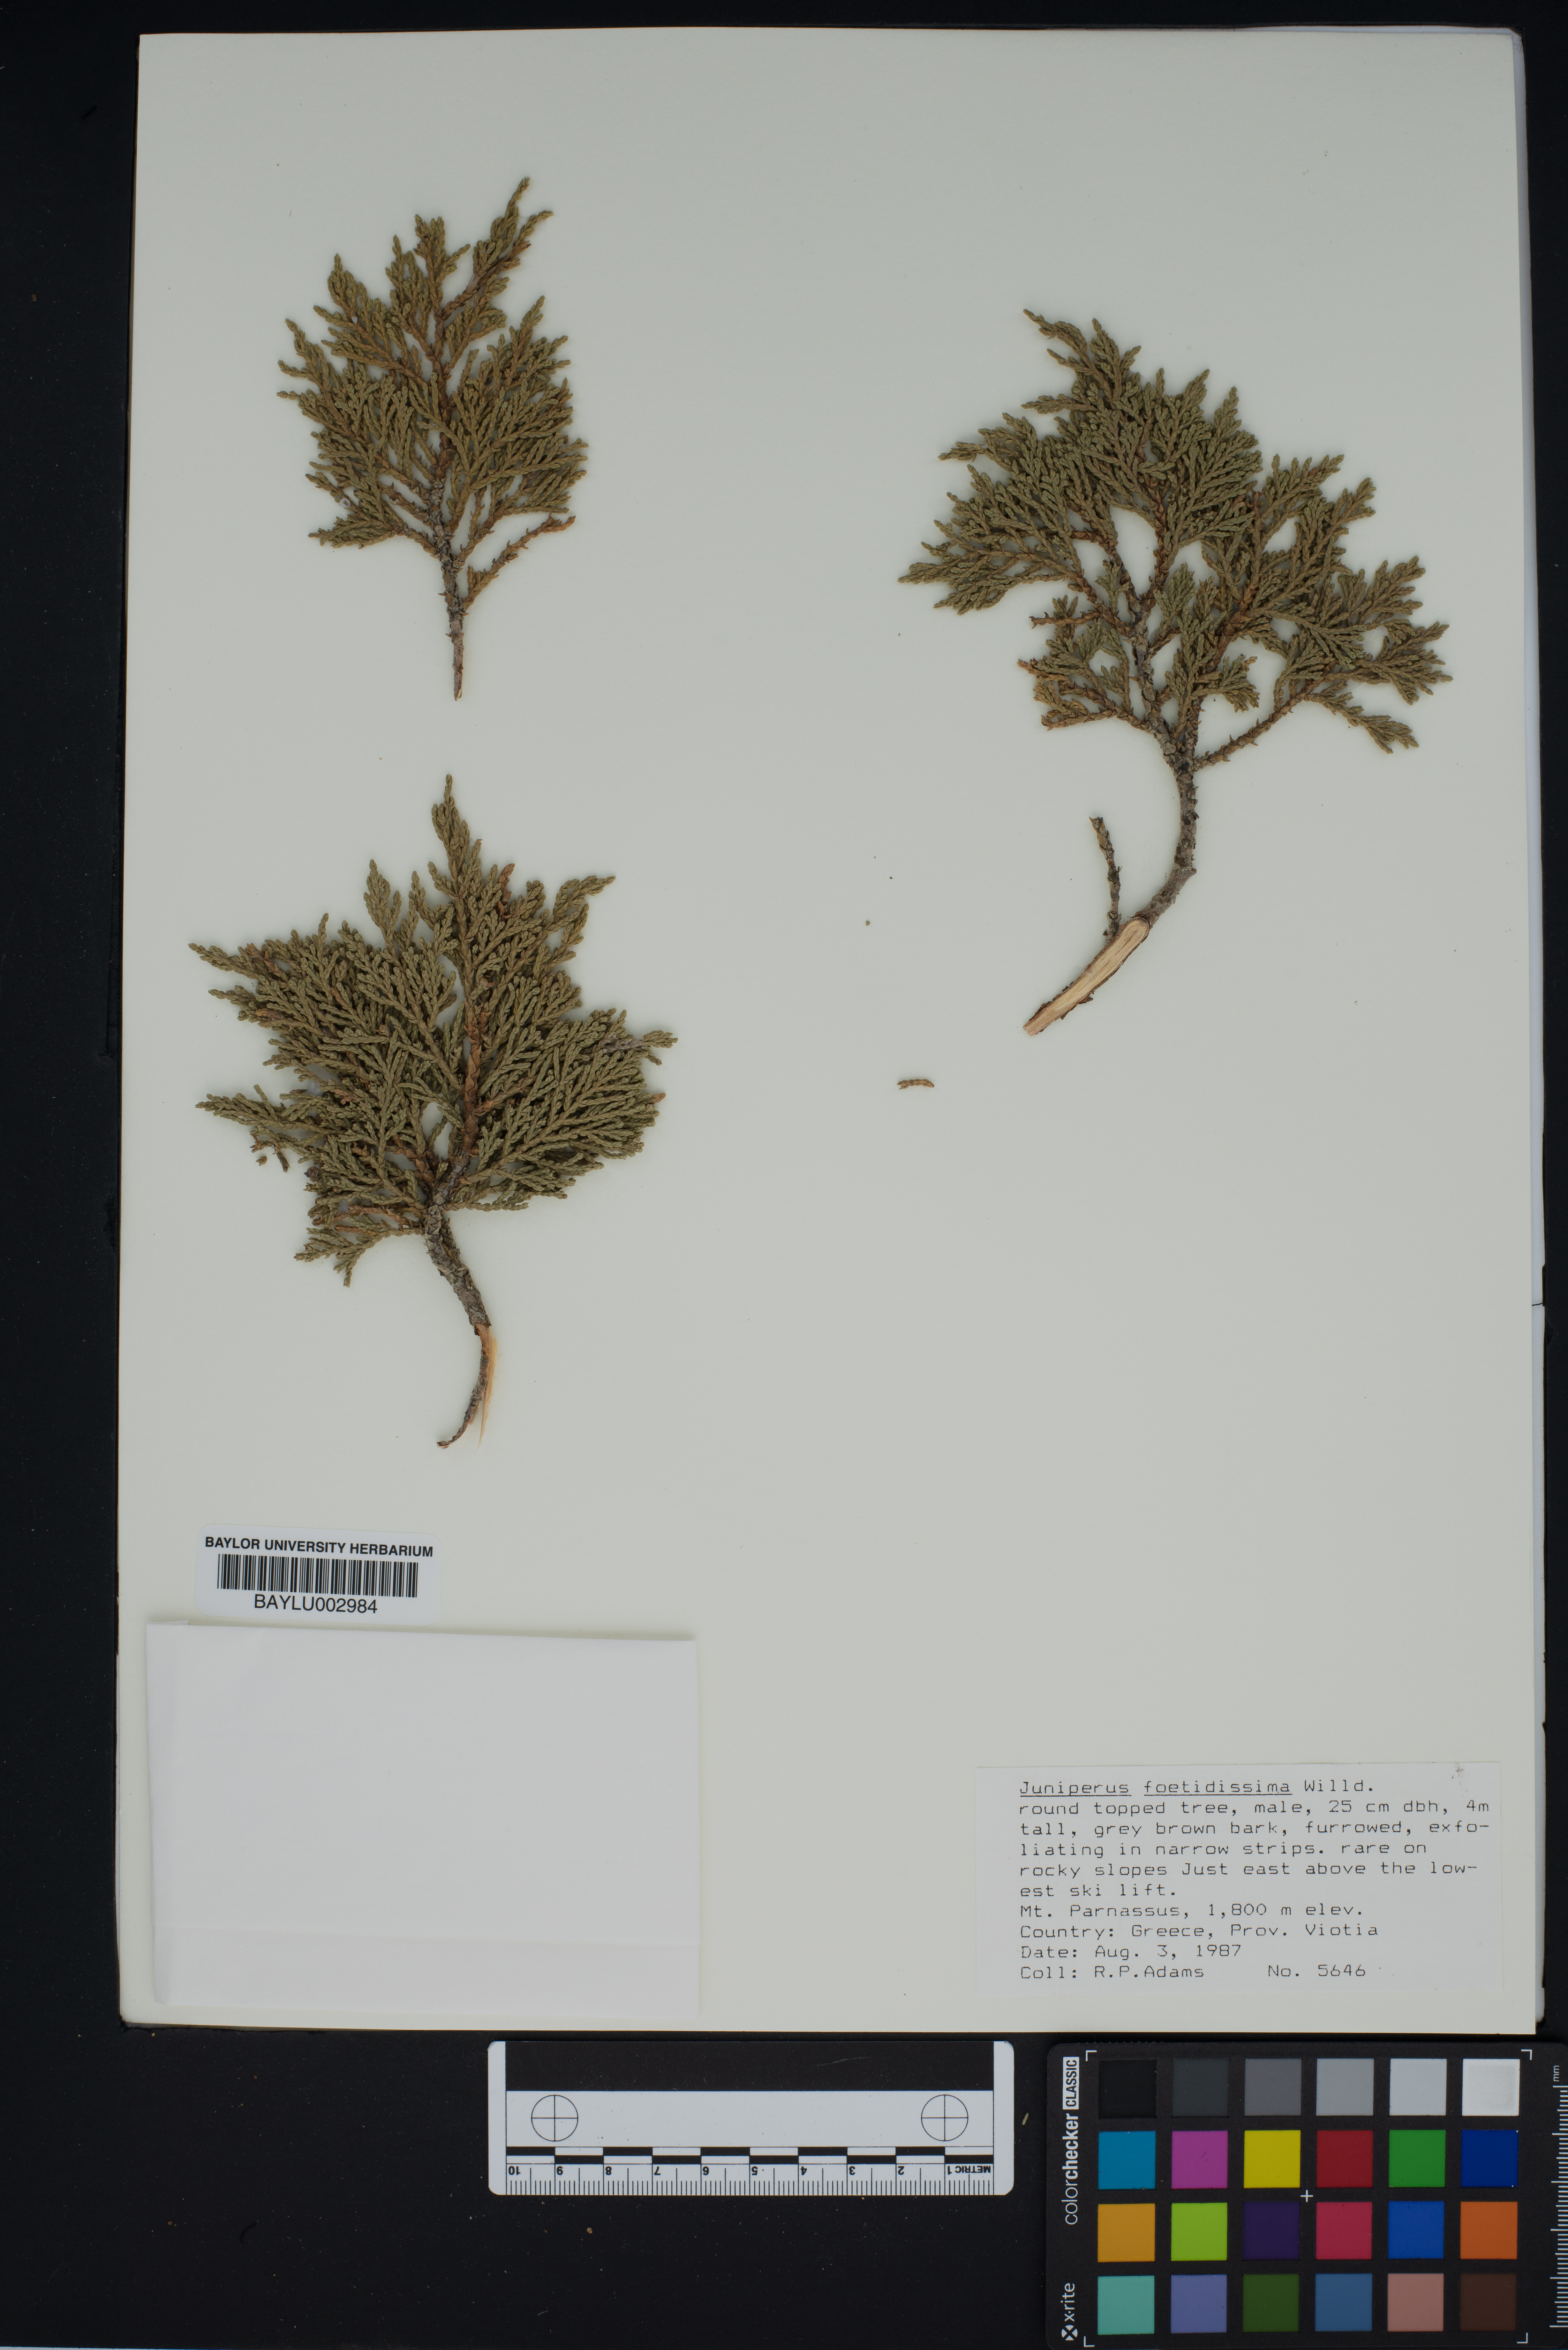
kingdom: Plantae
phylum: Tracheophyta
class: Pinopsida
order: Pinales
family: Cupressaceae
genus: Juniperus
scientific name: Juniperus foetidissima
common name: Stinking juniper
